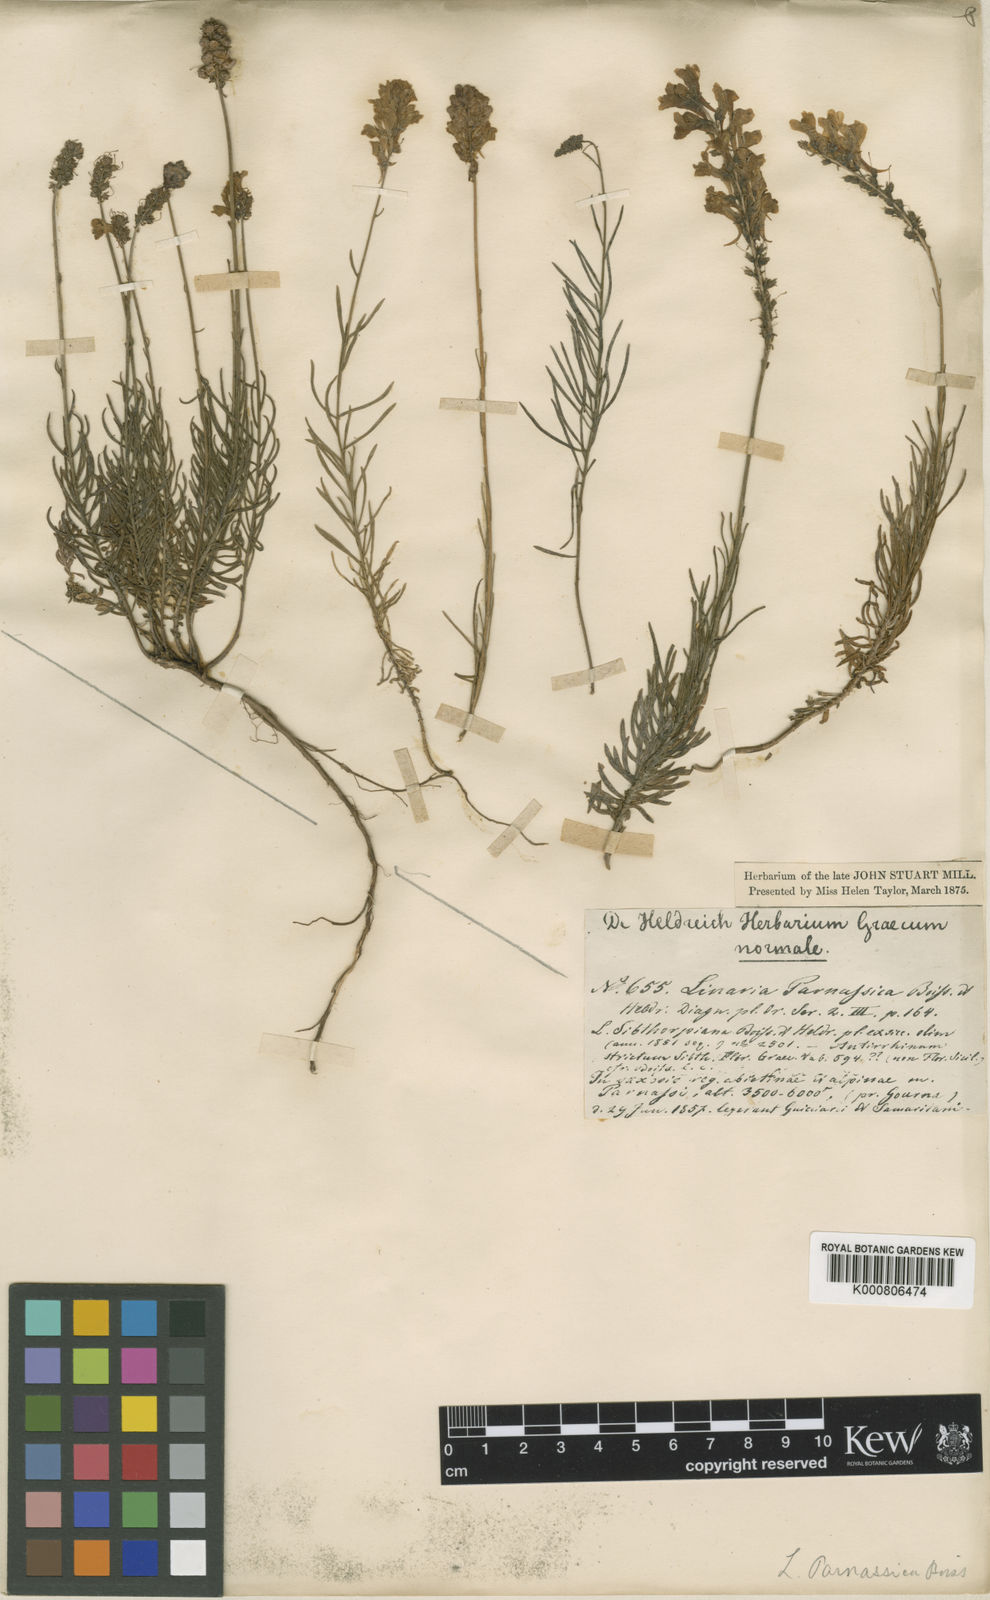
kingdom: Plantae
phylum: Tracheophyta
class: Magnoliopsida
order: Lamiales
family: Plantaginaceae
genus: Linaria
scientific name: Linaria peloponnesiaca
